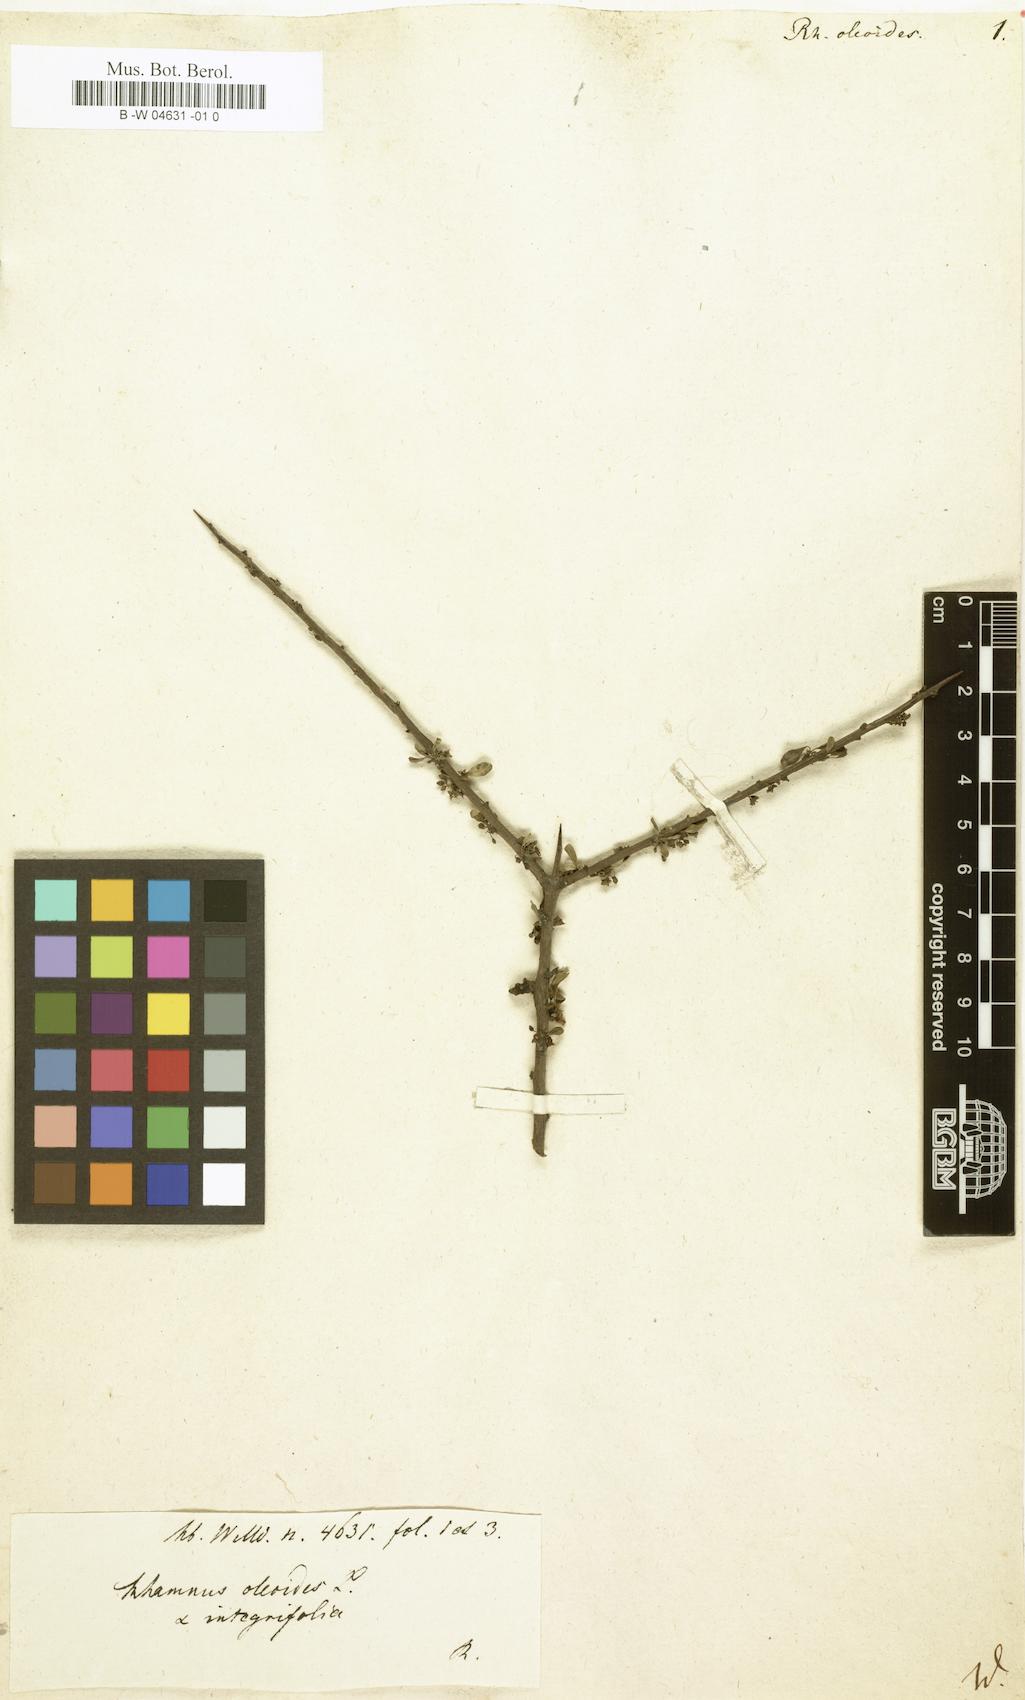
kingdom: Plantae
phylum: Tracheophyta
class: Magnoliopsida
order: Rosales
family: Rhamnaceae
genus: Rhamnus
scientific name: Rhamnus oleoides
